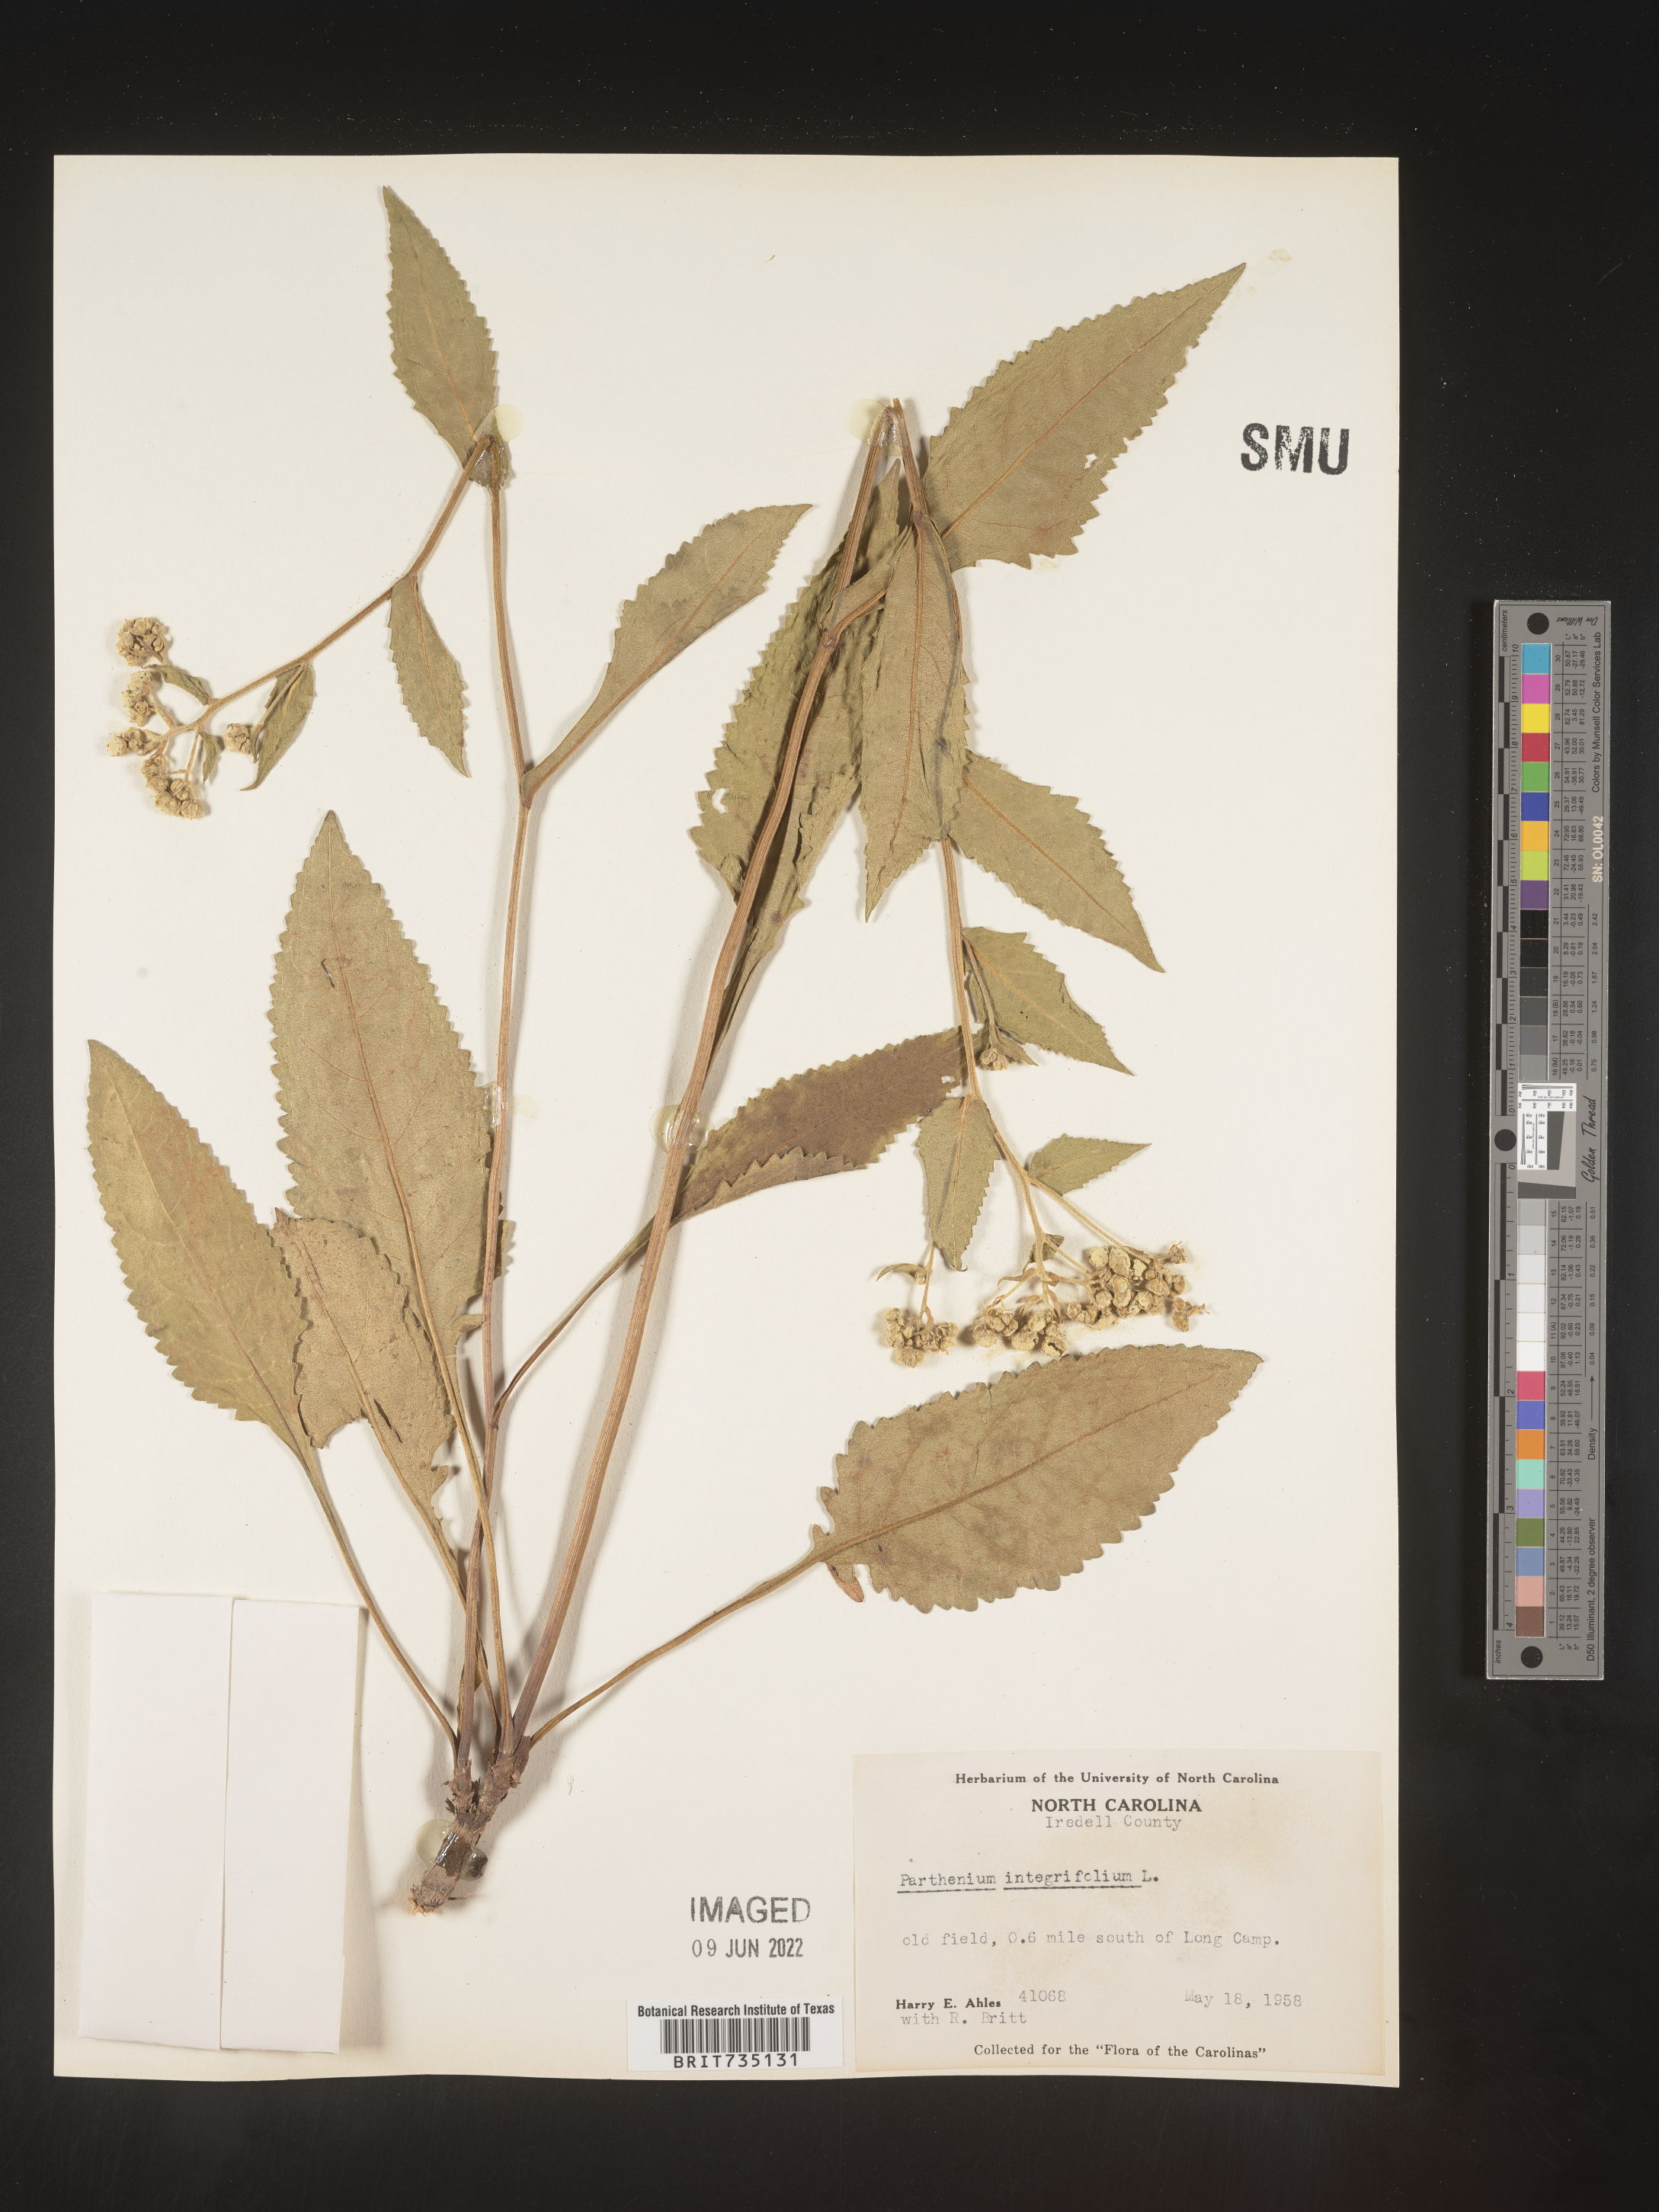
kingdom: Plantae
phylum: Tracheophyta
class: Magnoliopsida
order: Asterales
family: Asteraceae
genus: Parthenium
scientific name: Parthenium integrifolium
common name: American feverfew
